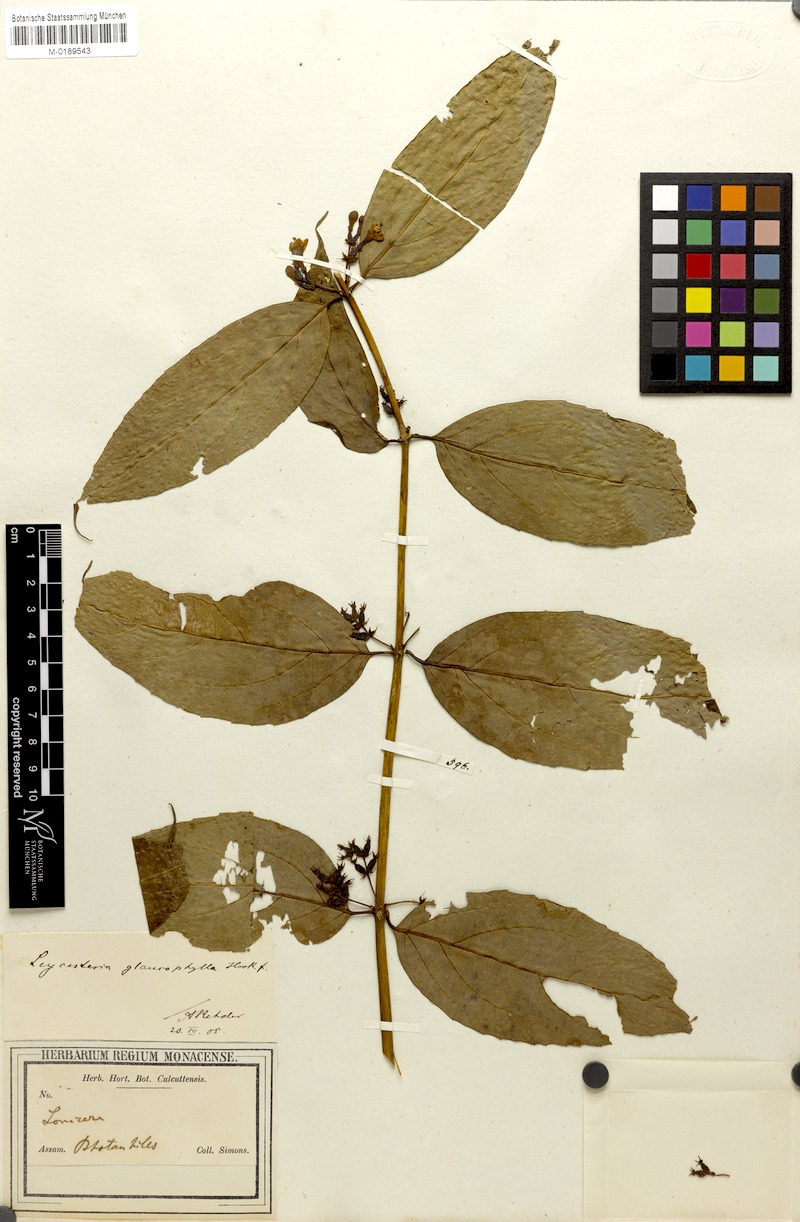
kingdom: Plantae
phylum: Tracheophyta
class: Magnoliopsida
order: Dipsacales
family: Caprifoliaceae
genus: Leycesteria
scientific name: Leycesteria glaucophylla
